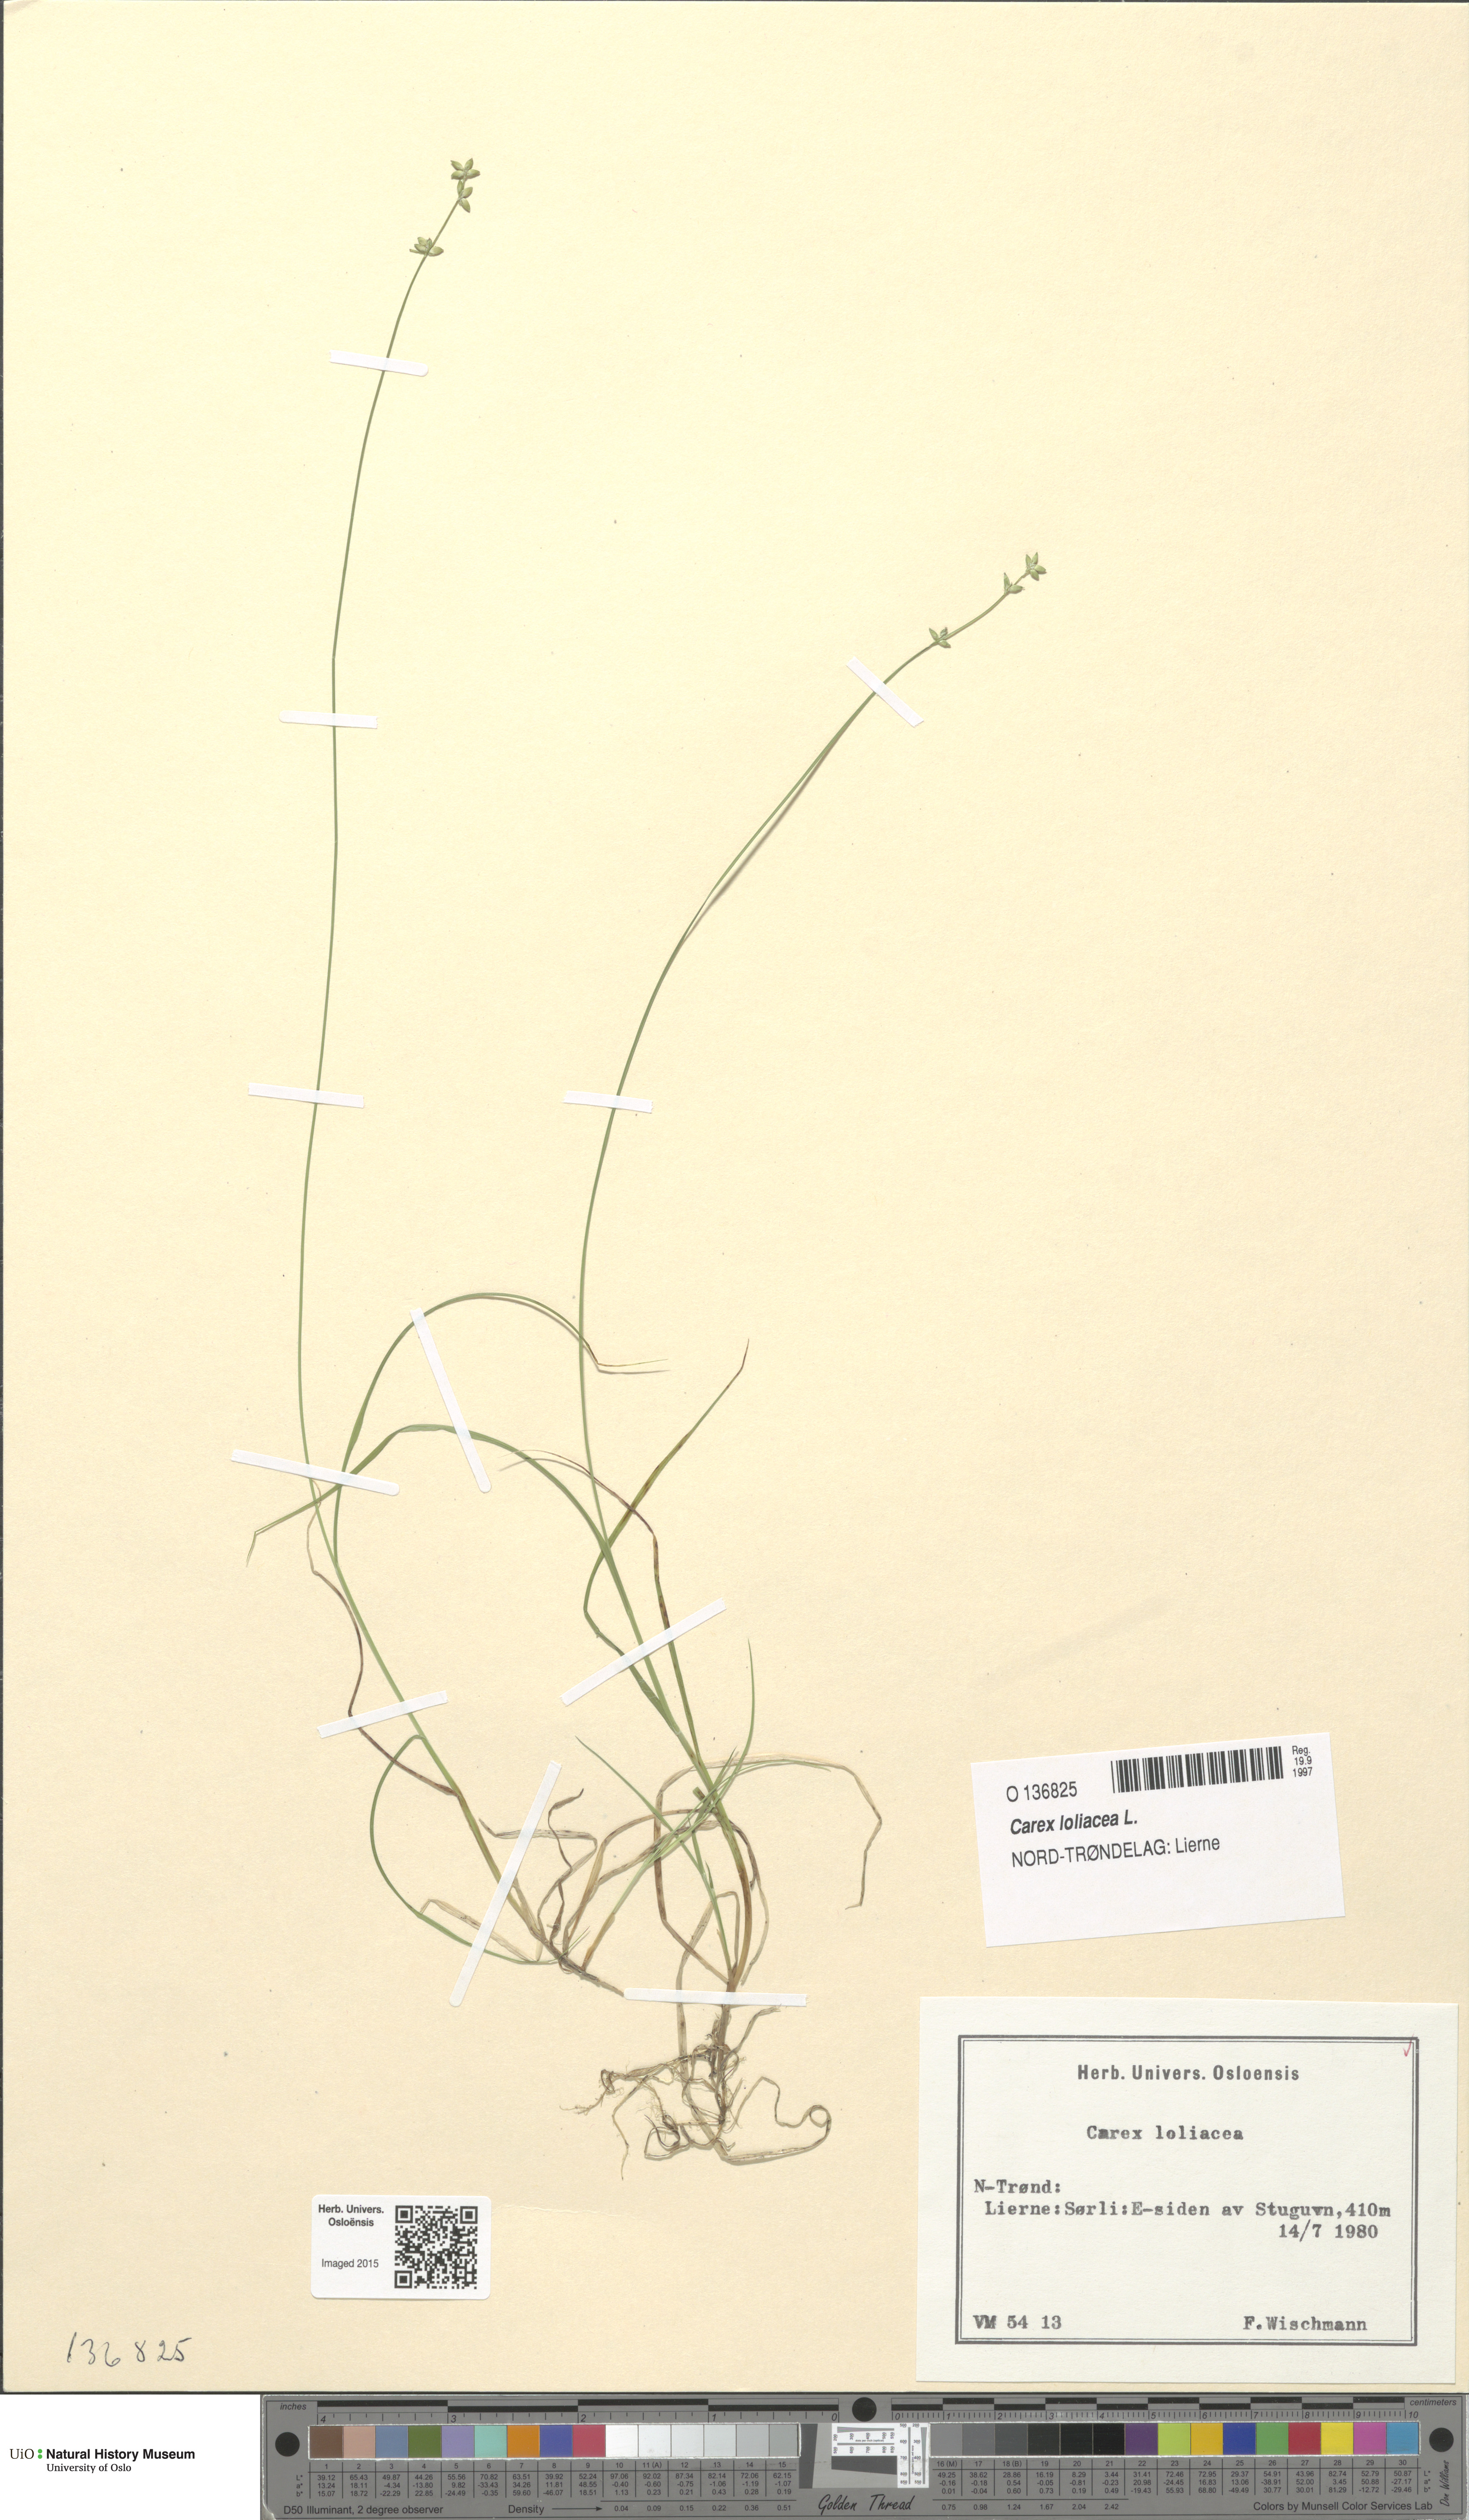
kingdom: Plantae
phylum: Tracheophyta
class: Liliopsida
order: Poales
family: Cyperaceae
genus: Carex
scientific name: Carex loliacea
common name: Ryegrass sedge
